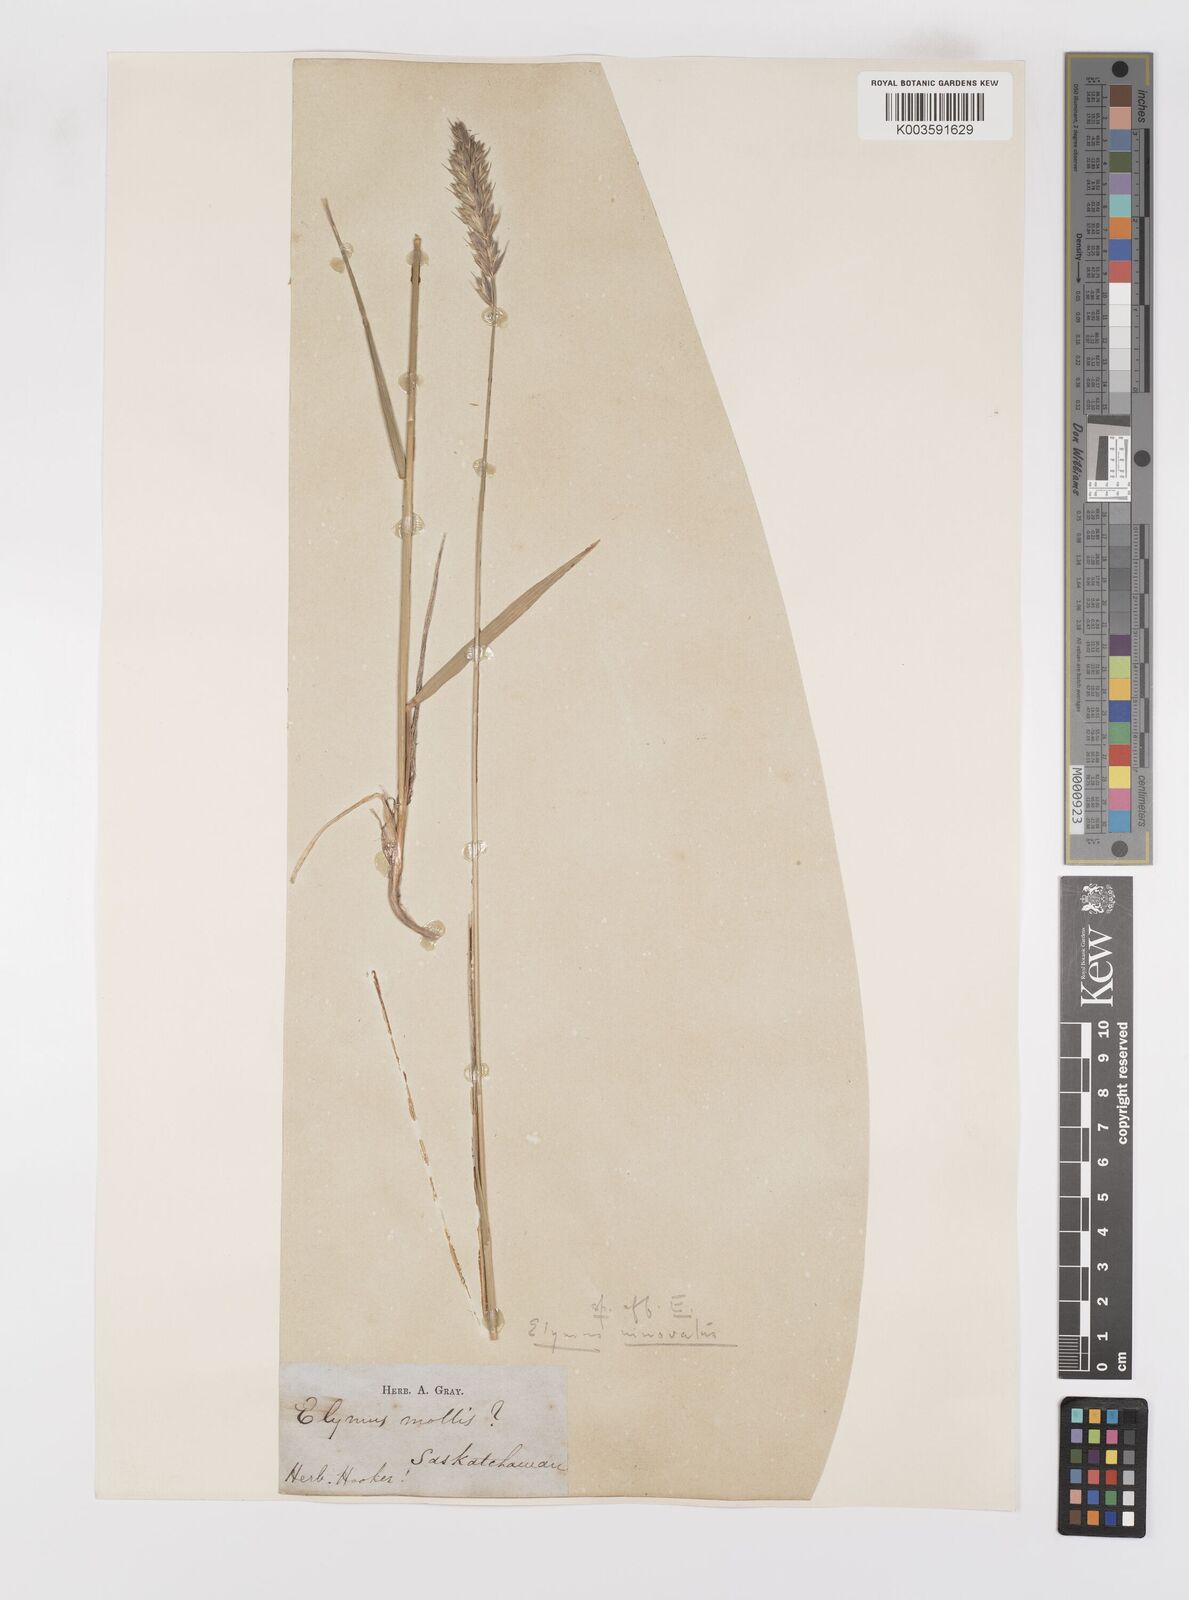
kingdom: Plantae
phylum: Tracheophyta
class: Liliopsida
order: Poales
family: Poaceae
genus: Leymus
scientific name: Leymus
